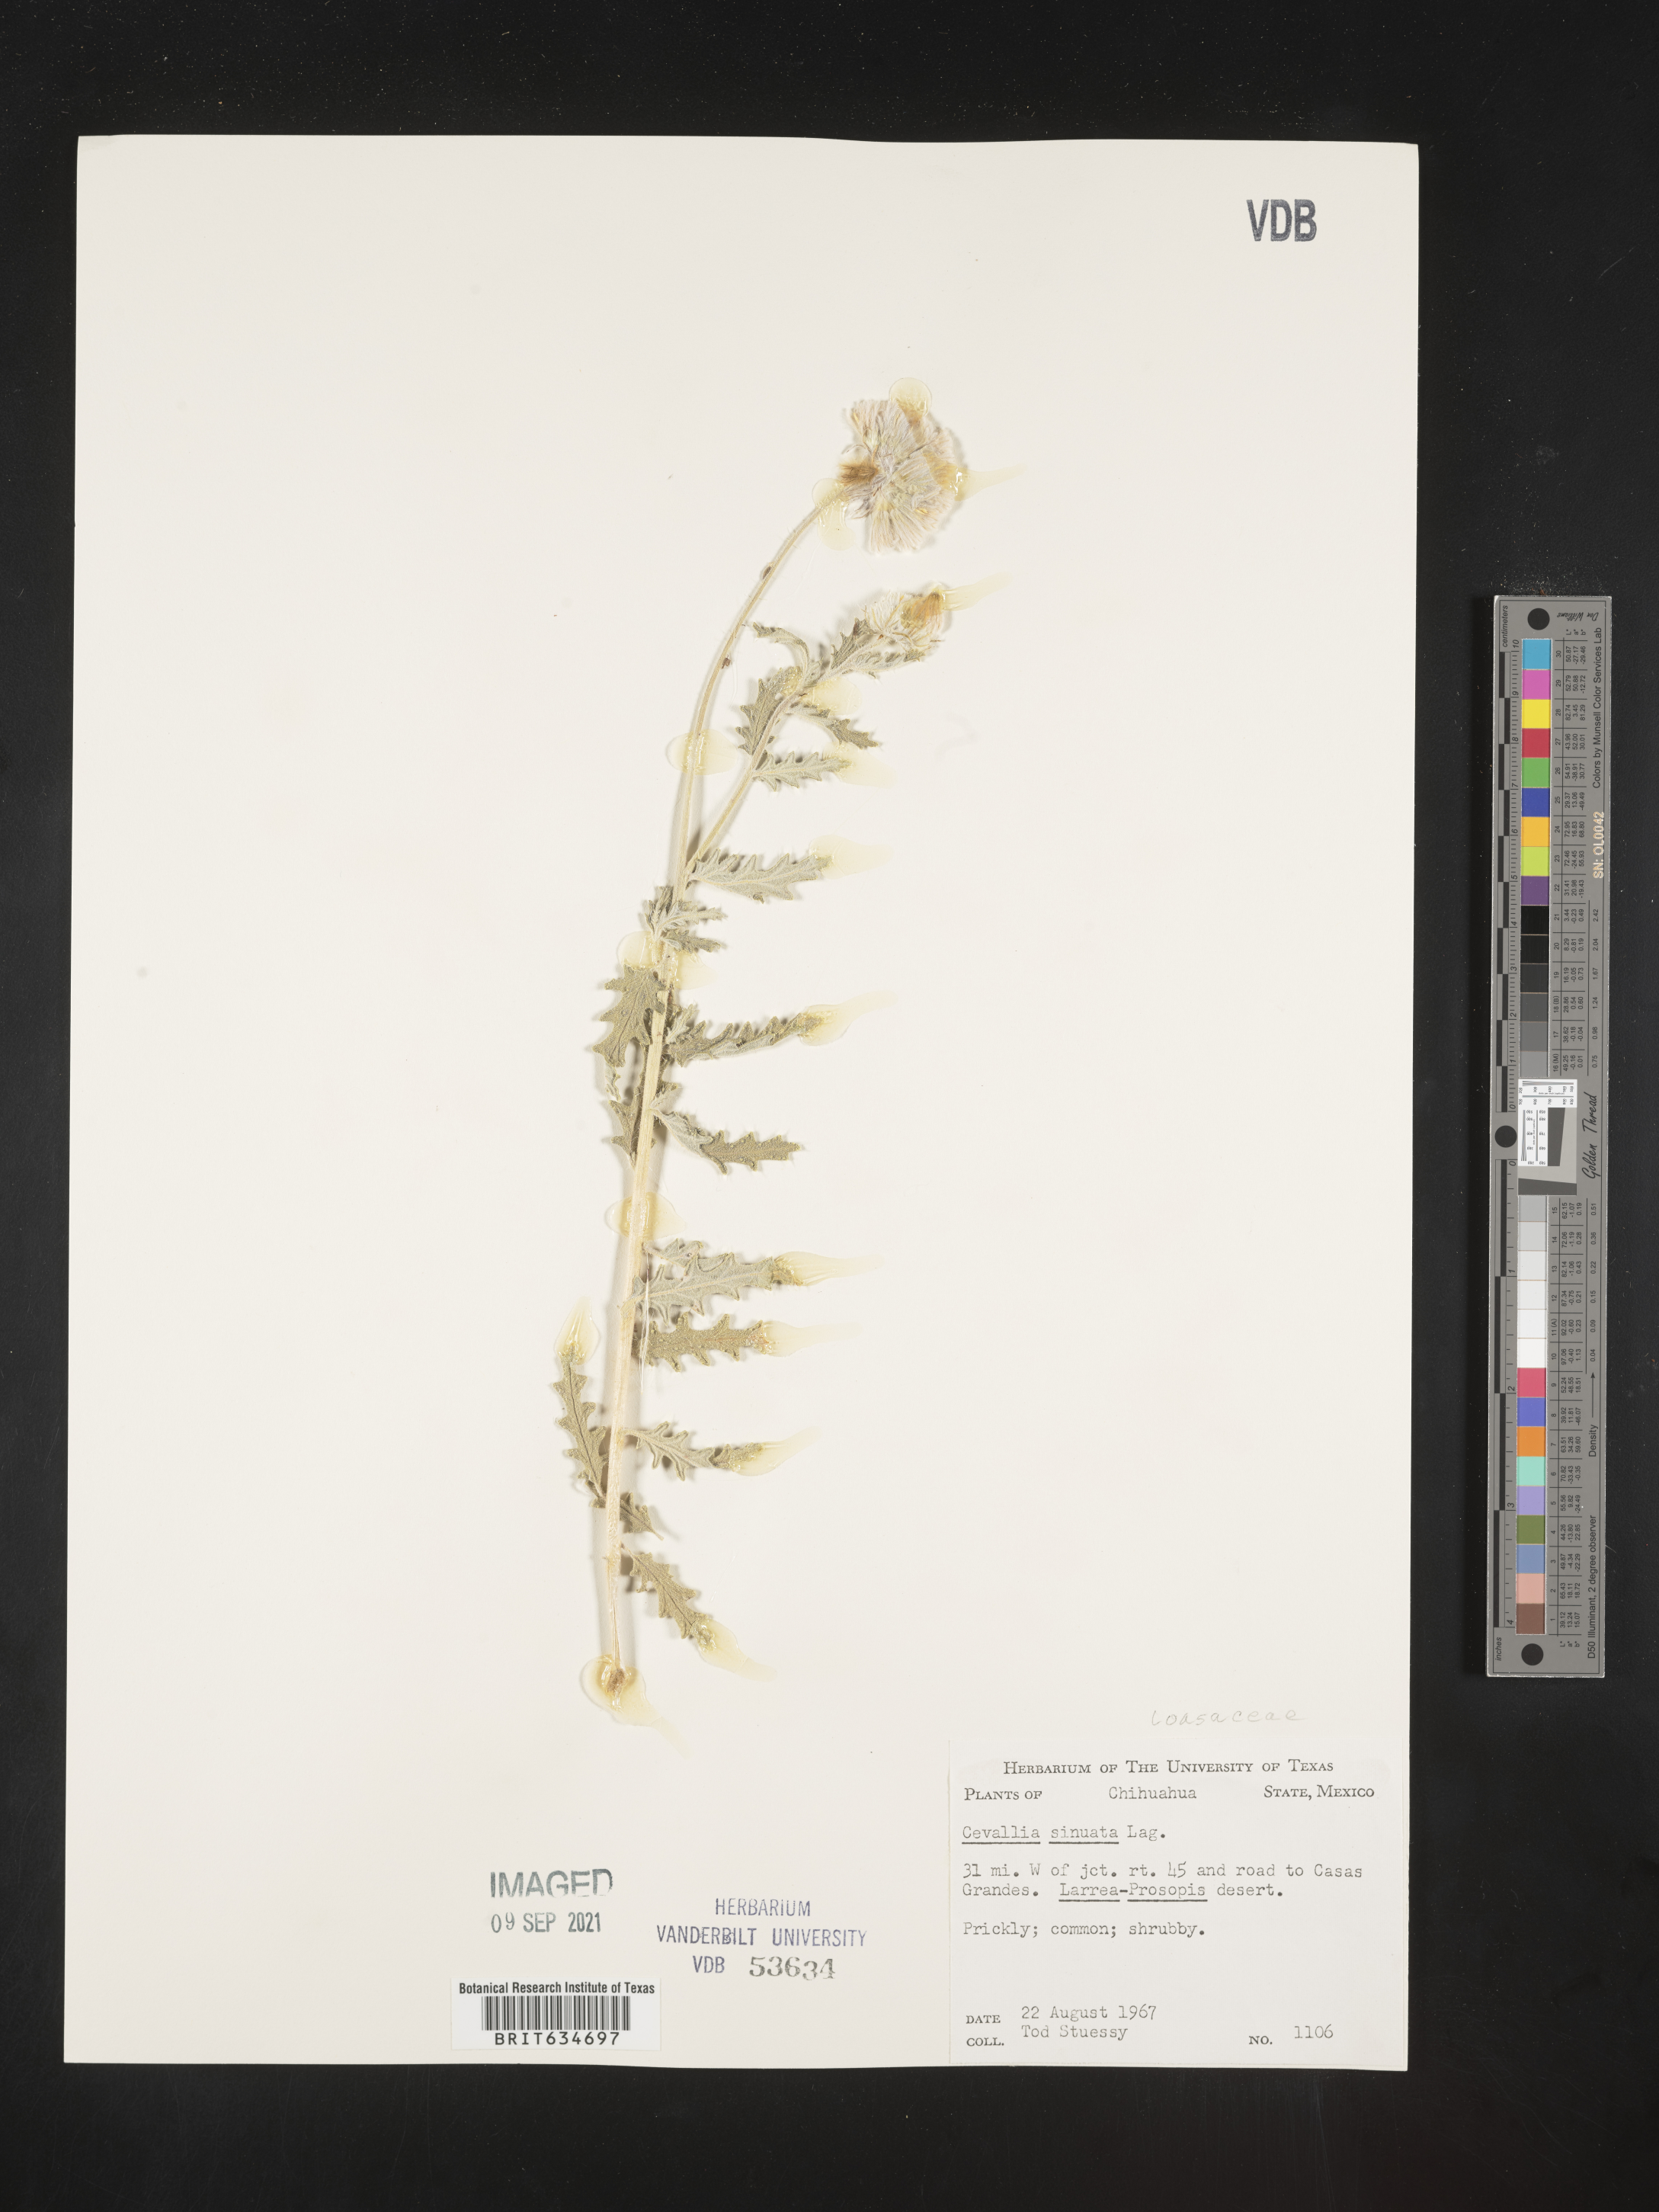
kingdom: Plantae
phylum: Tracheophyta
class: Magnoliopsida
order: Cornales
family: Loasaceae
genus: Cevallia
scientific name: Cevallia
